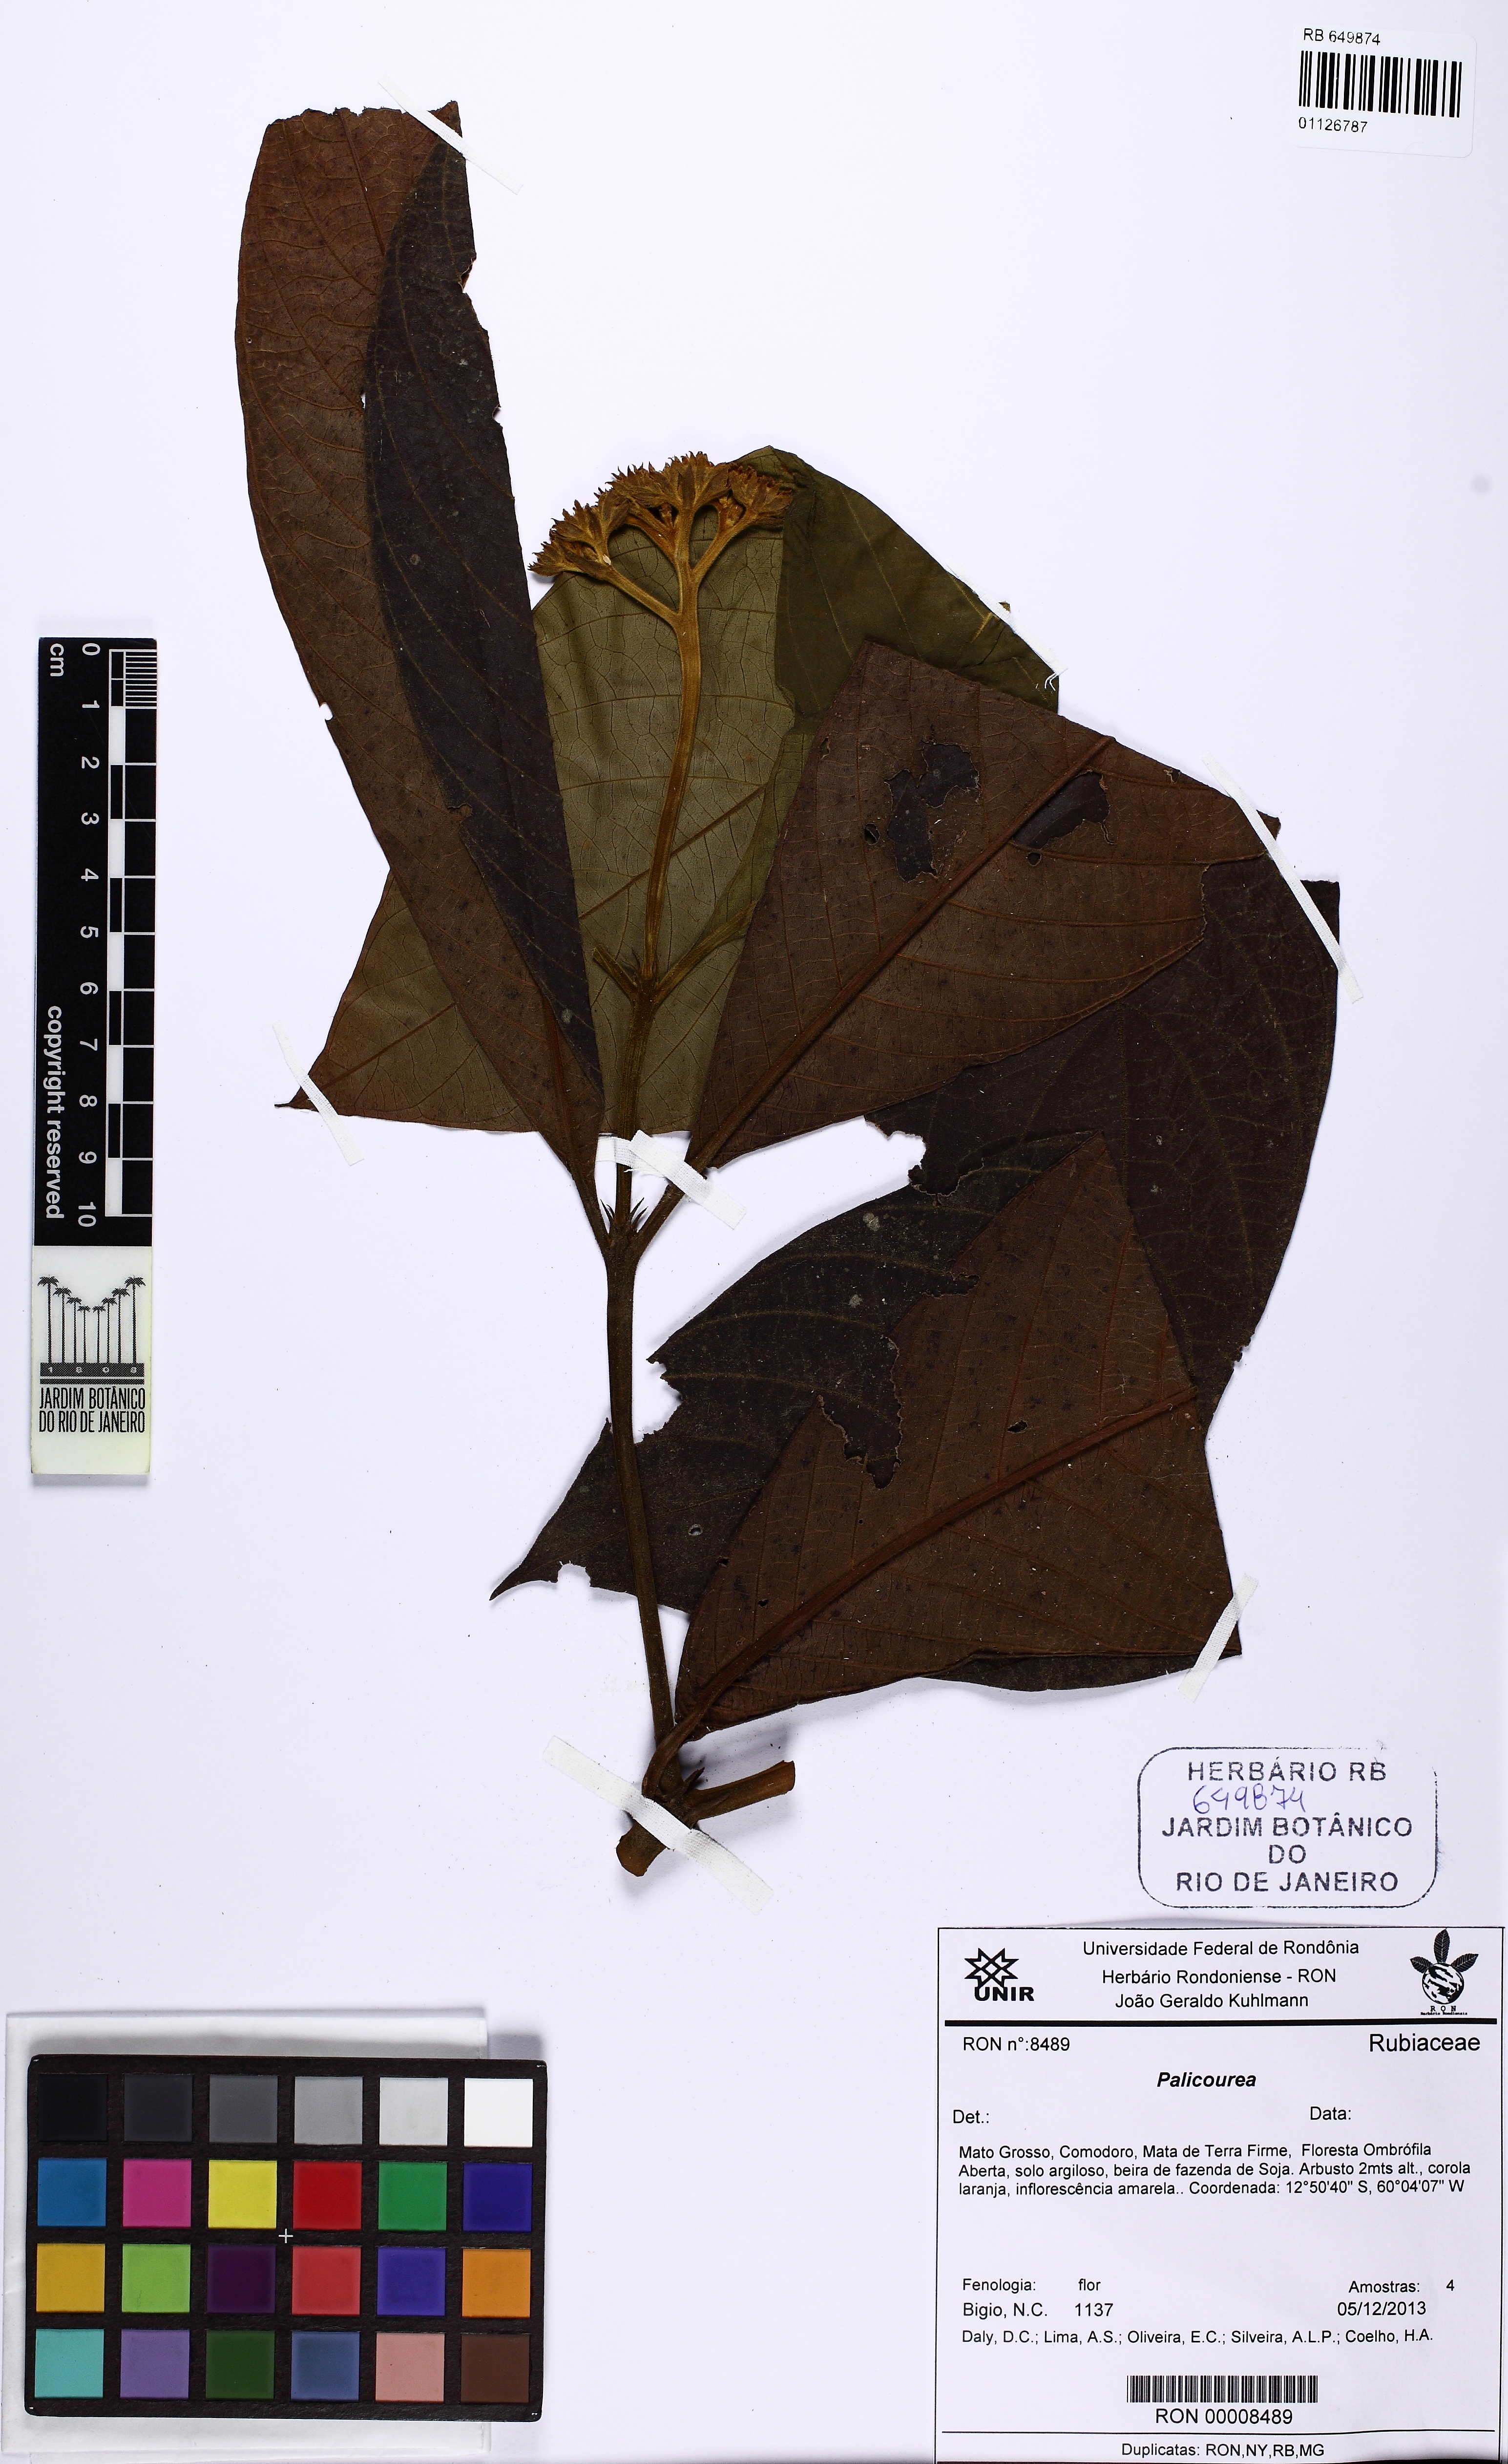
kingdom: Plantae
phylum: Tracheophyta
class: Magnoliopsida
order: Gentianales
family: Rubiaceae
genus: Palicourea
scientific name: Palicourea longistipulata
